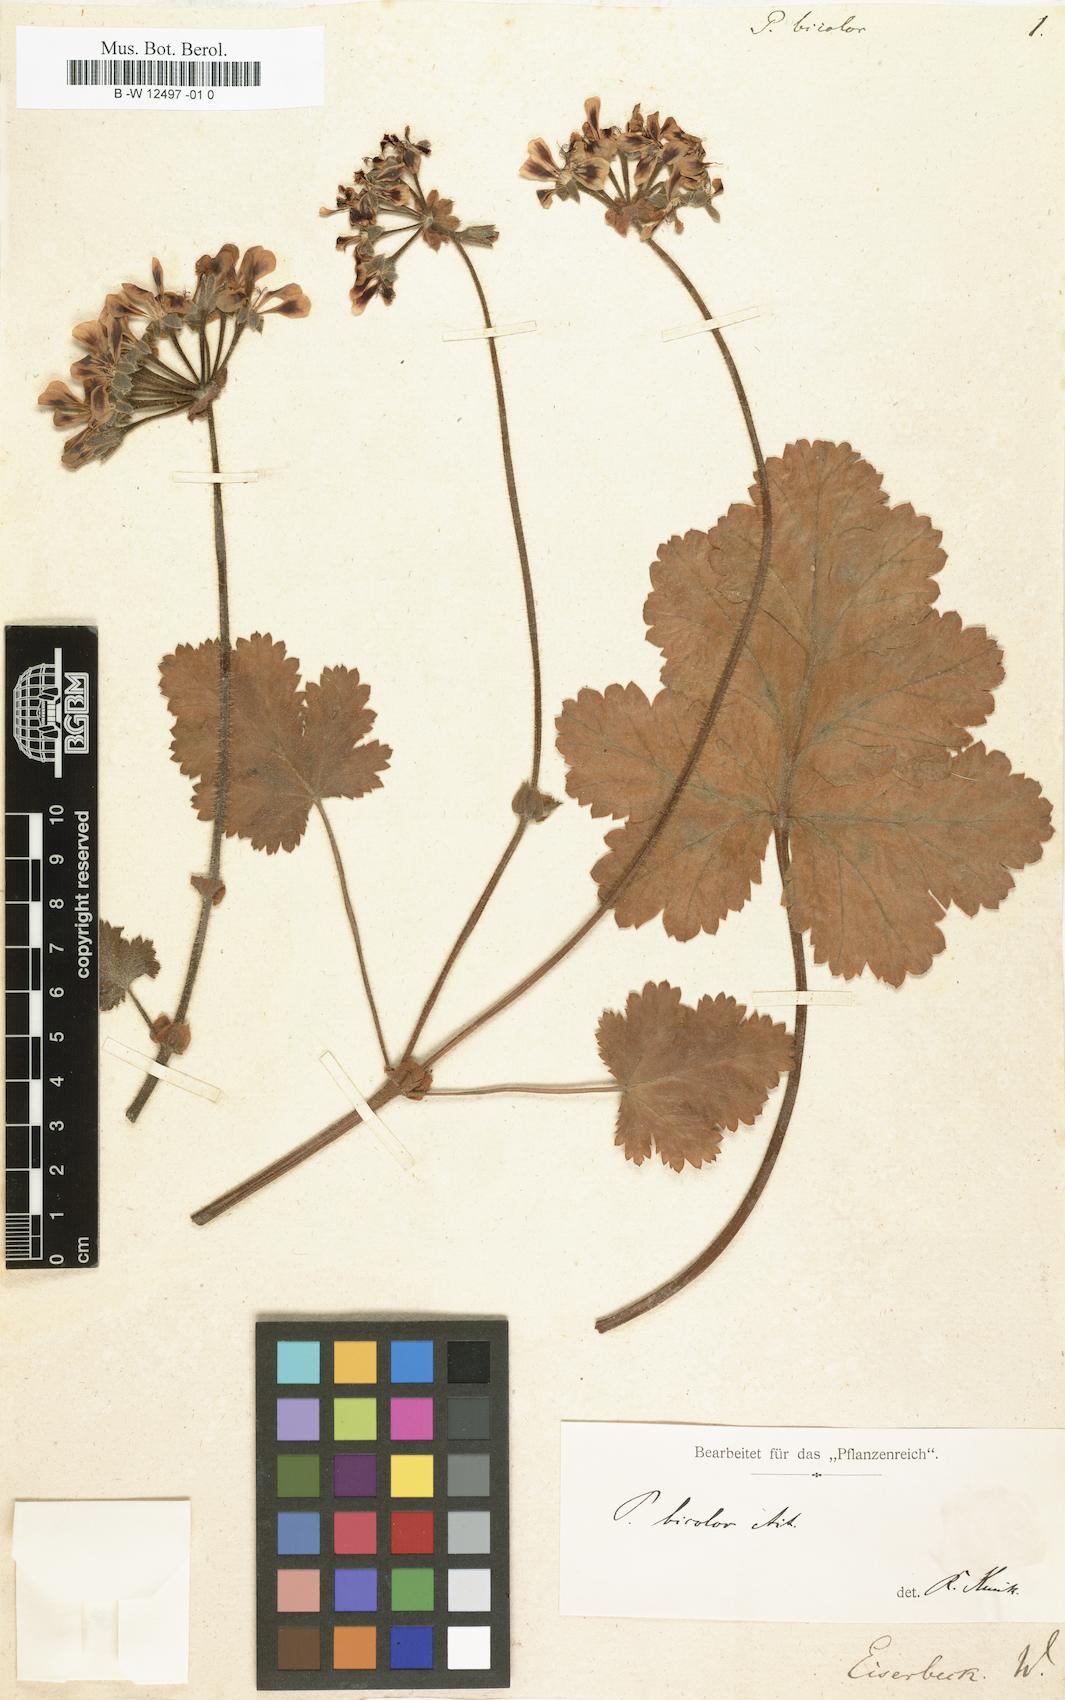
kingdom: Plantae
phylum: Tracheophyta
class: Magnoliopsida
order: Geraniales
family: Geraniaceae
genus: Pelargonium
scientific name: Pelargonium bicolor
